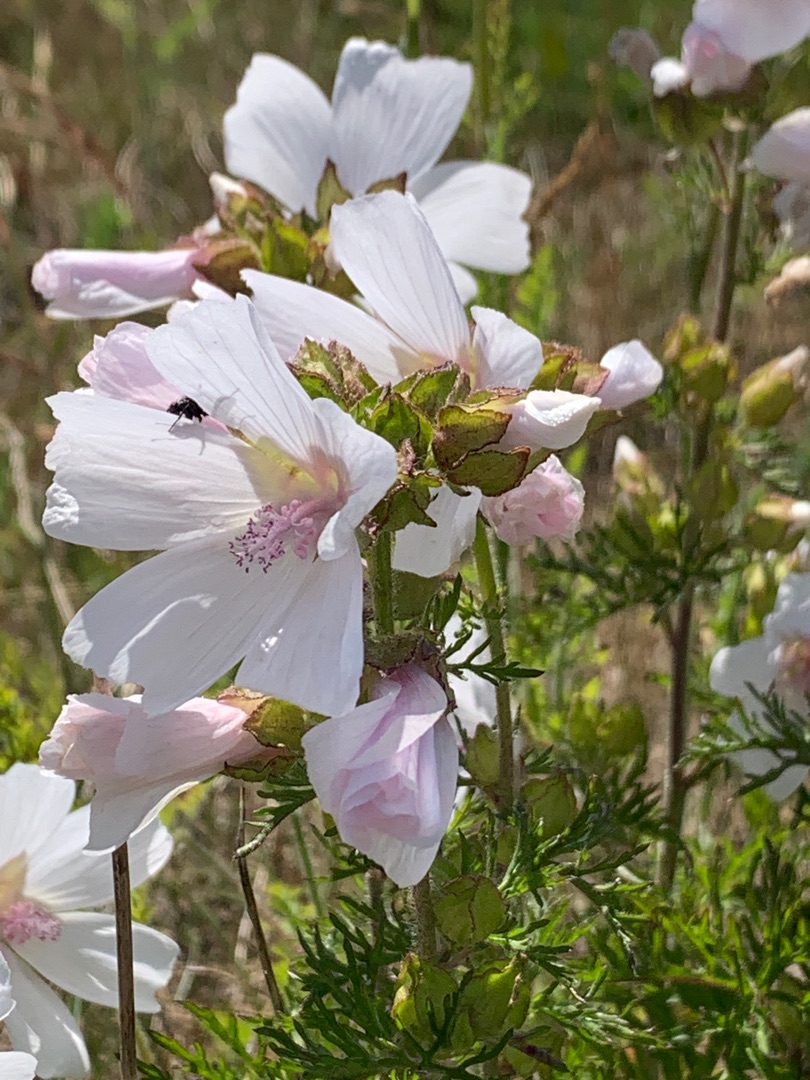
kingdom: Plantae
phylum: Tracheophyta
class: Magnoliopsida
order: Malvales
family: Malvaceae
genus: Malva
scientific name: Malva moschata
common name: Moskus-katost
